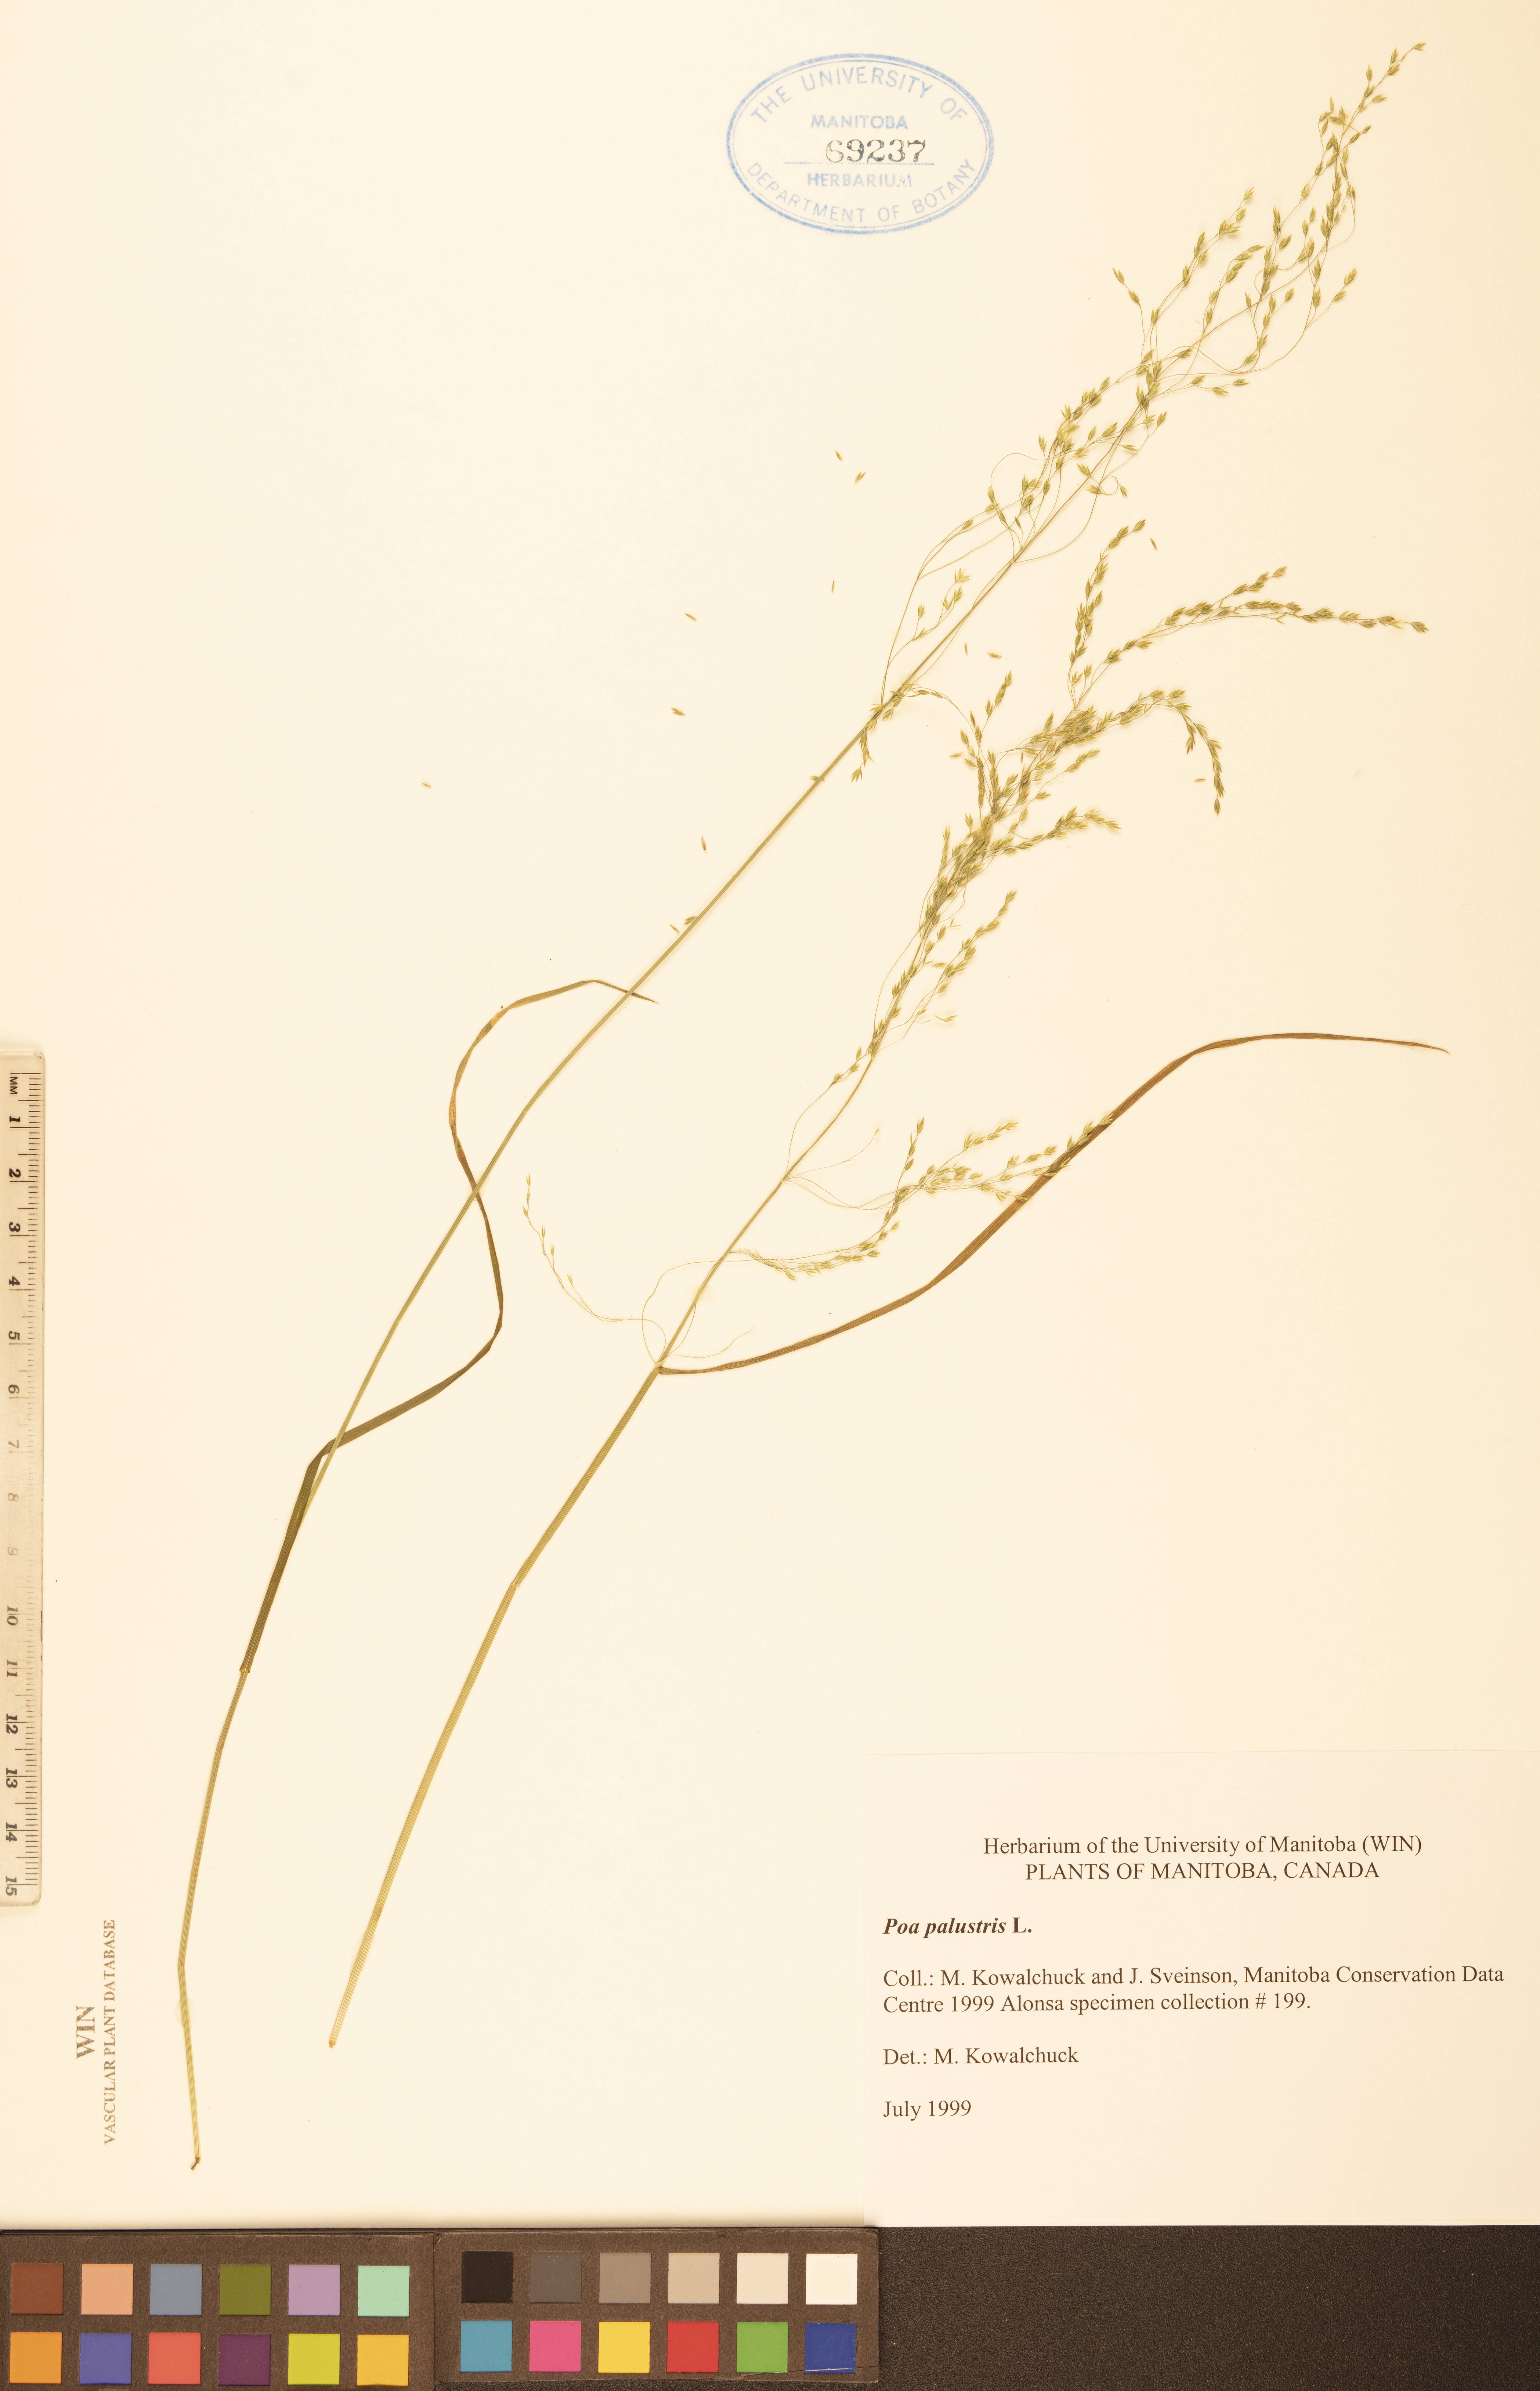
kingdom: Plantae
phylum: Tracheophyta
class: Liliopsida
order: Poales
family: Poaceae
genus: Poa
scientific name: Poa palustris
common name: Swamp meadow-grass
